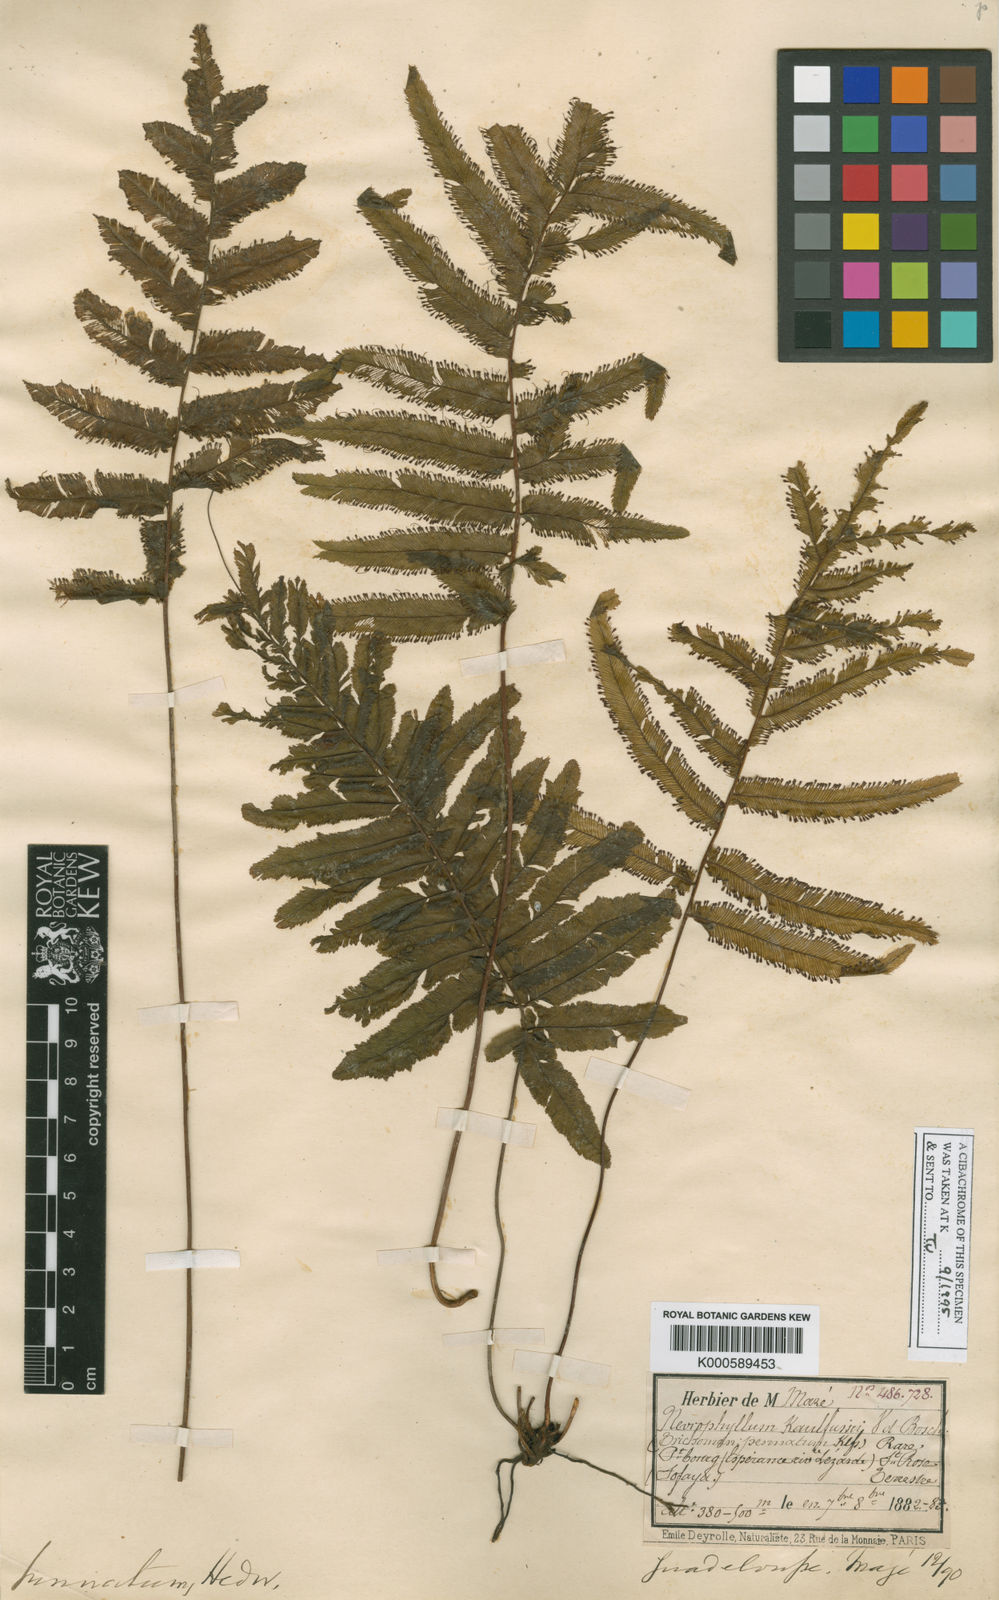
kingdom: Plantae
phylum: Tracheophyta
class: Polypodiopsida
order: Hymenophyllales
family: Hymenophyllaceae
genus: Trichomanes
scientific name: Trichomanes pinnatum
